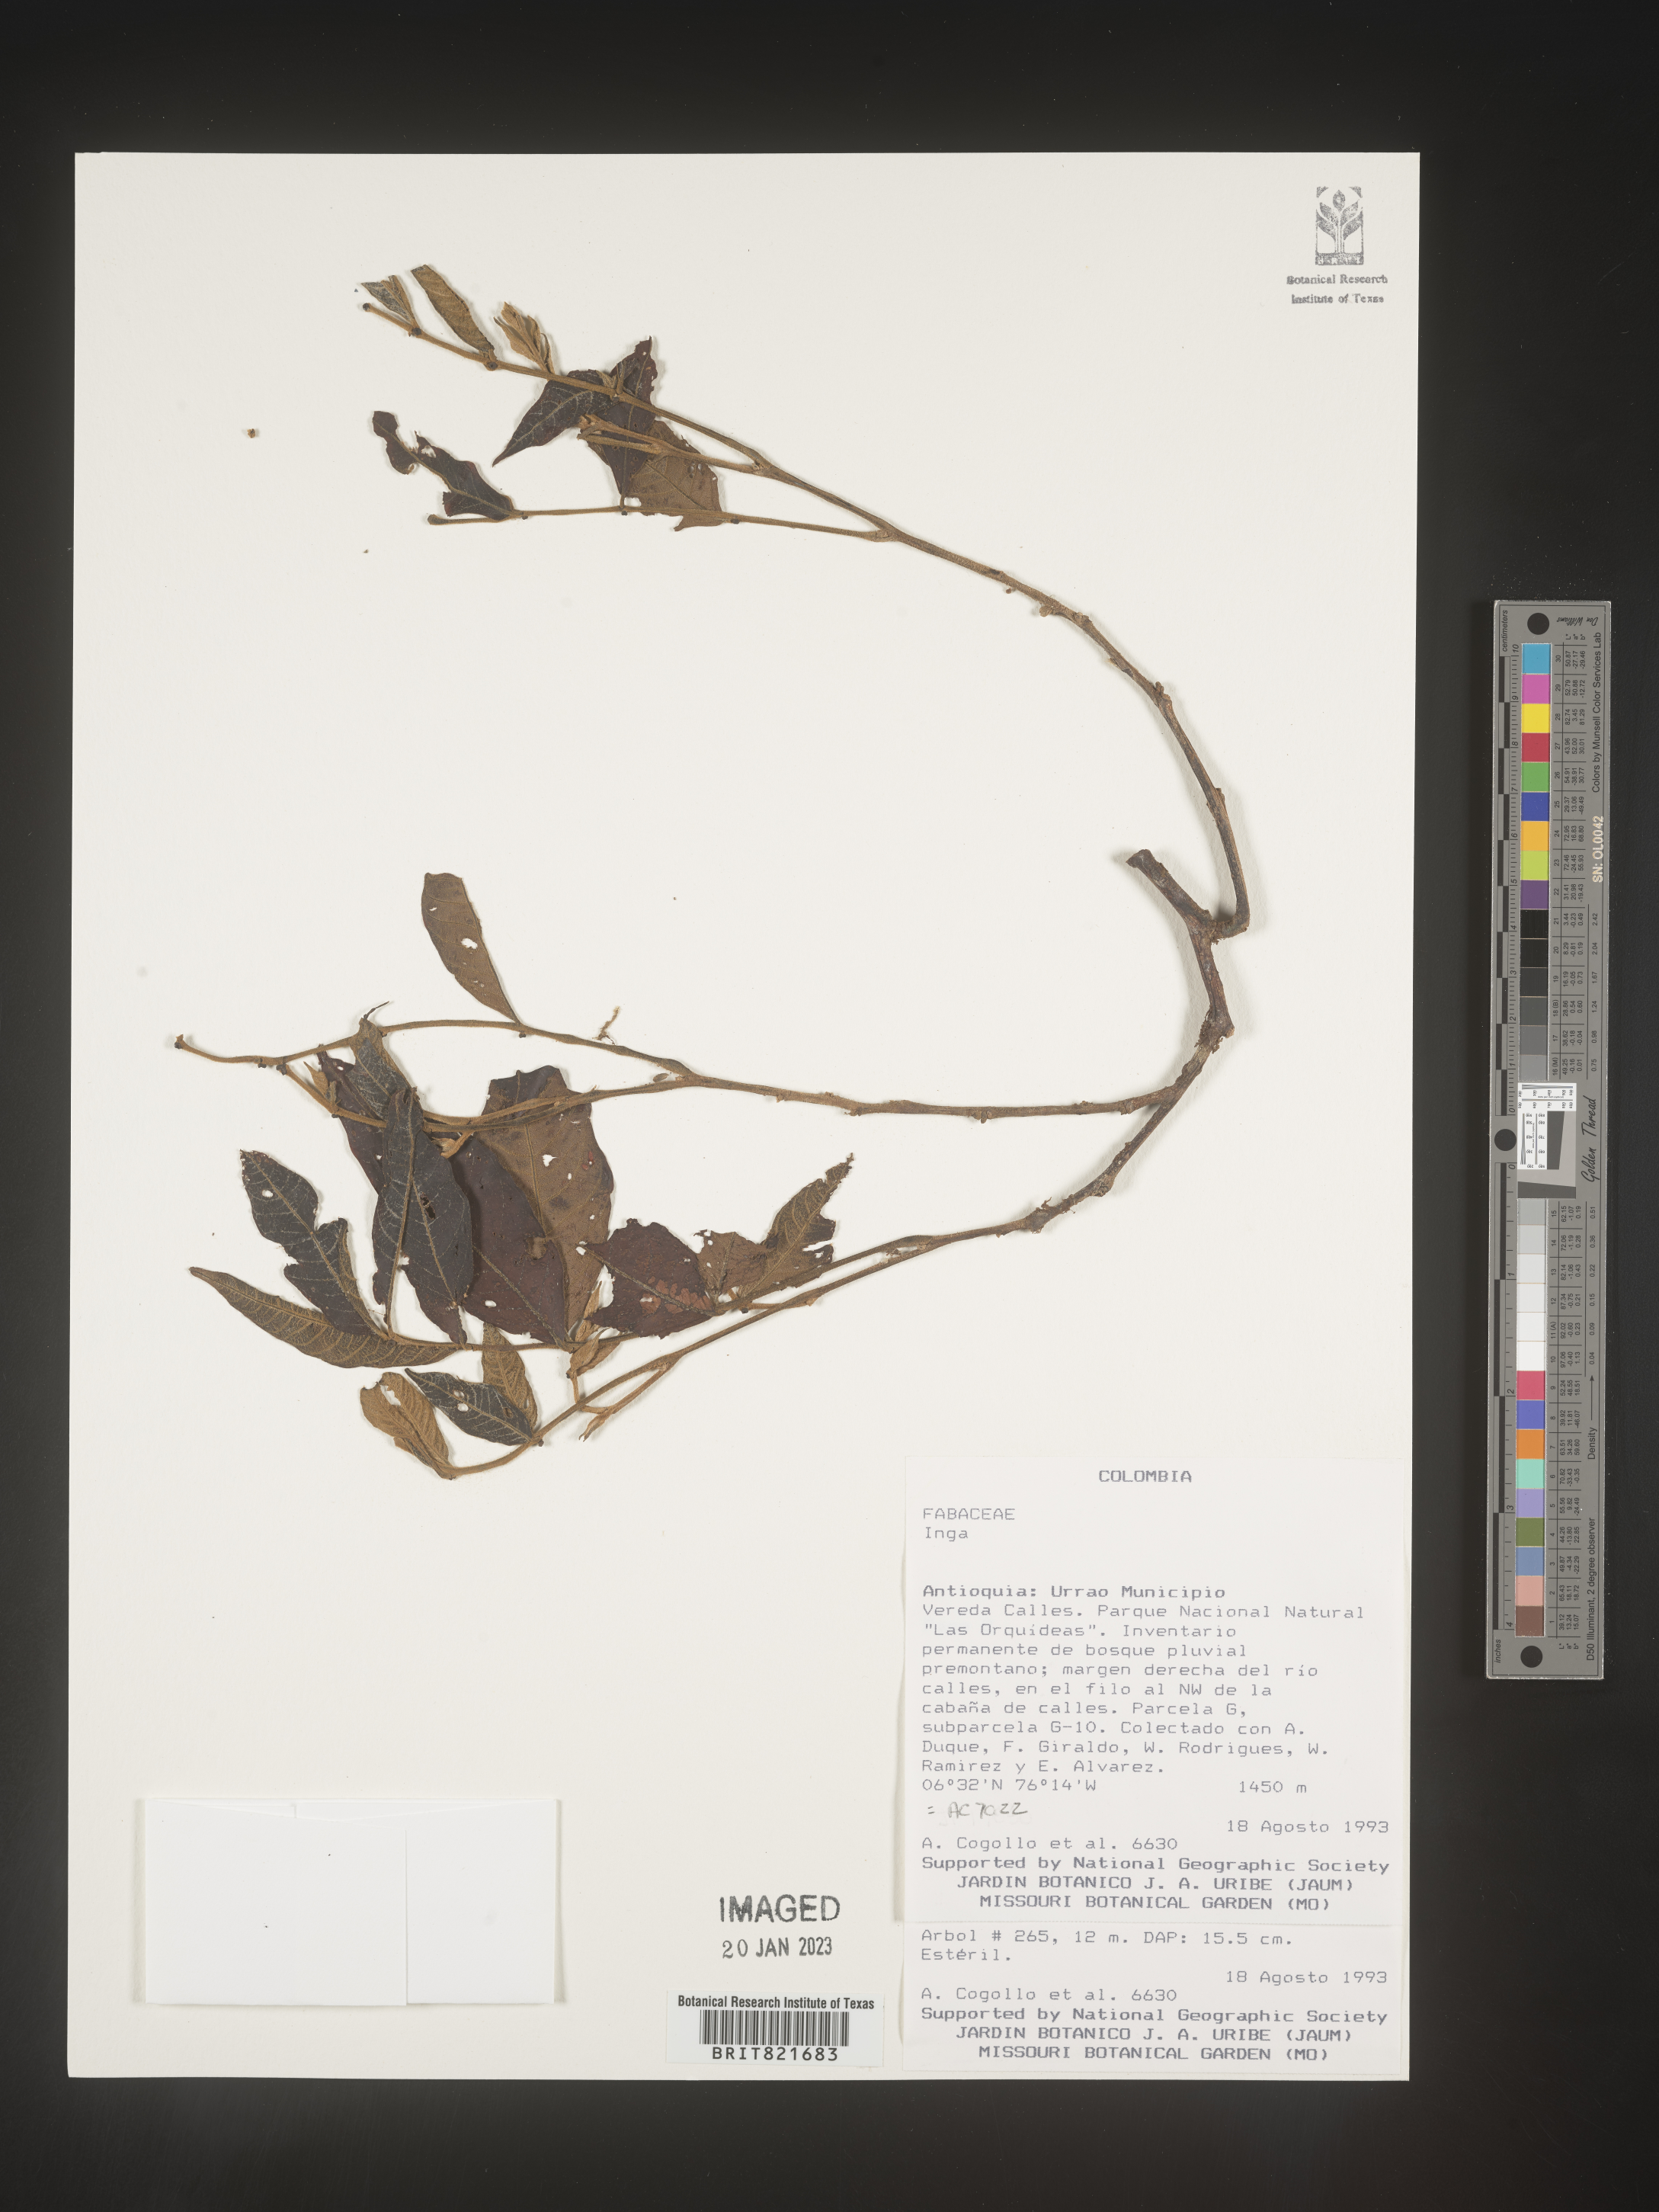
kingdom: Plantae
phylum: Tracheophyta
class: Magnoliopsida
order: Fabales
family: Fabaceae
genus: Inga
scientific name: Inga
